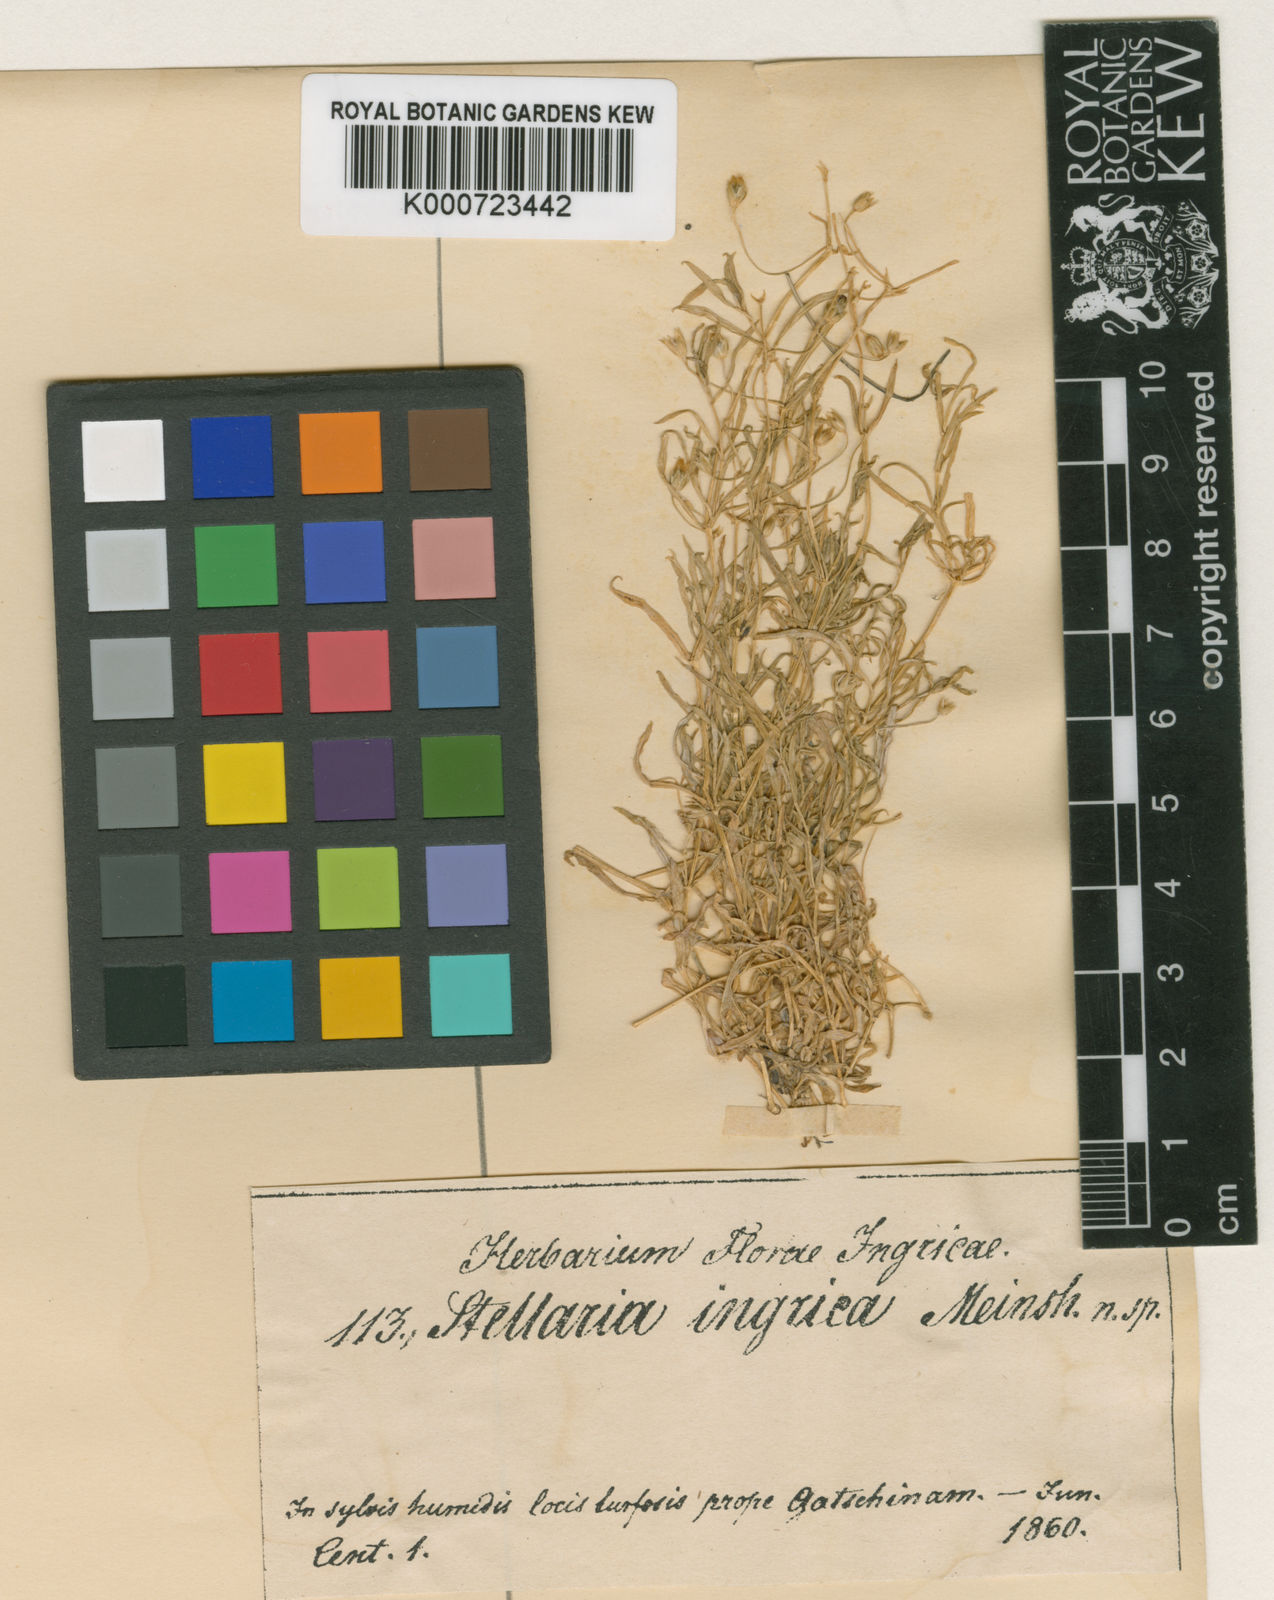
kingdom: Plantae
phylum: Tracheophyta
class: Magnoliopsida
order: Caryophyllales
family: Caryophyllaceae
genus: Stellaria
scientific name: Stellaria longifolia
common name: Long-leaved chickweed
